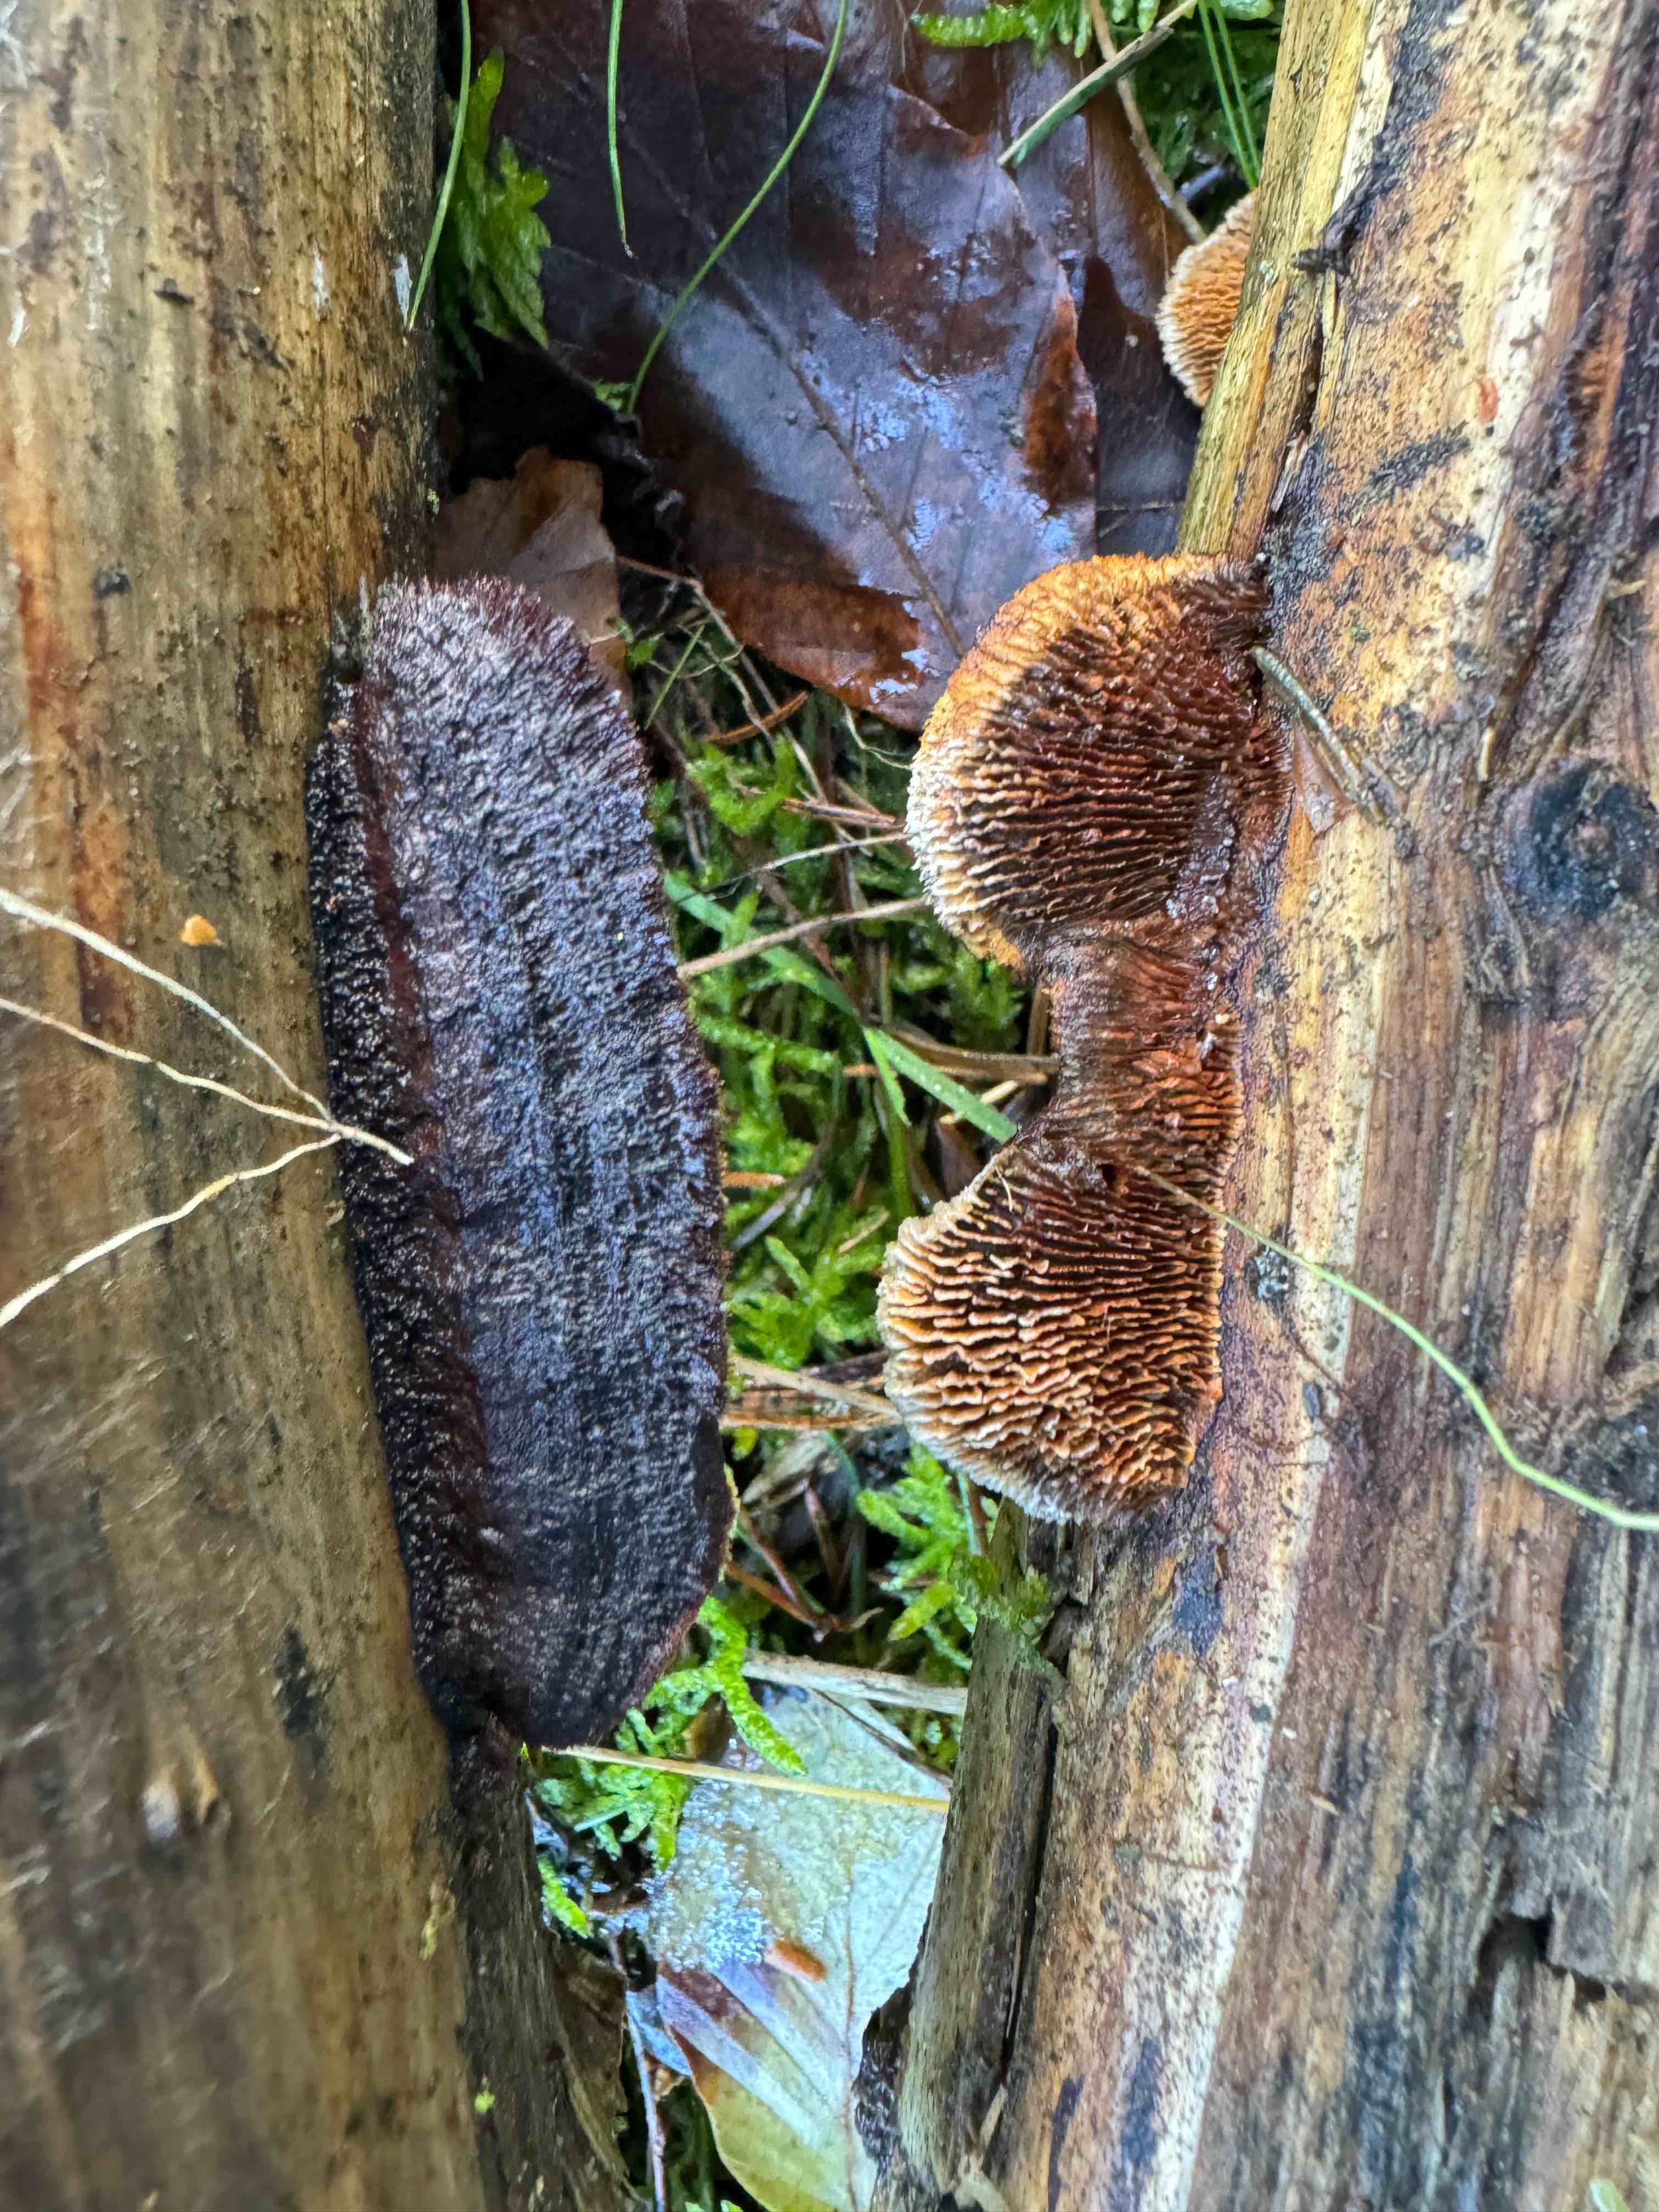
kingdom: Fungi
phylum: Basidiomycota
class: Agaricomycetes
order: Gloeophyllales
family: Gloeophyllaceae
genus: Gloeophyllum
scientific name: Gloeophyllum sepiarium
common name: fyrre-korkhat
